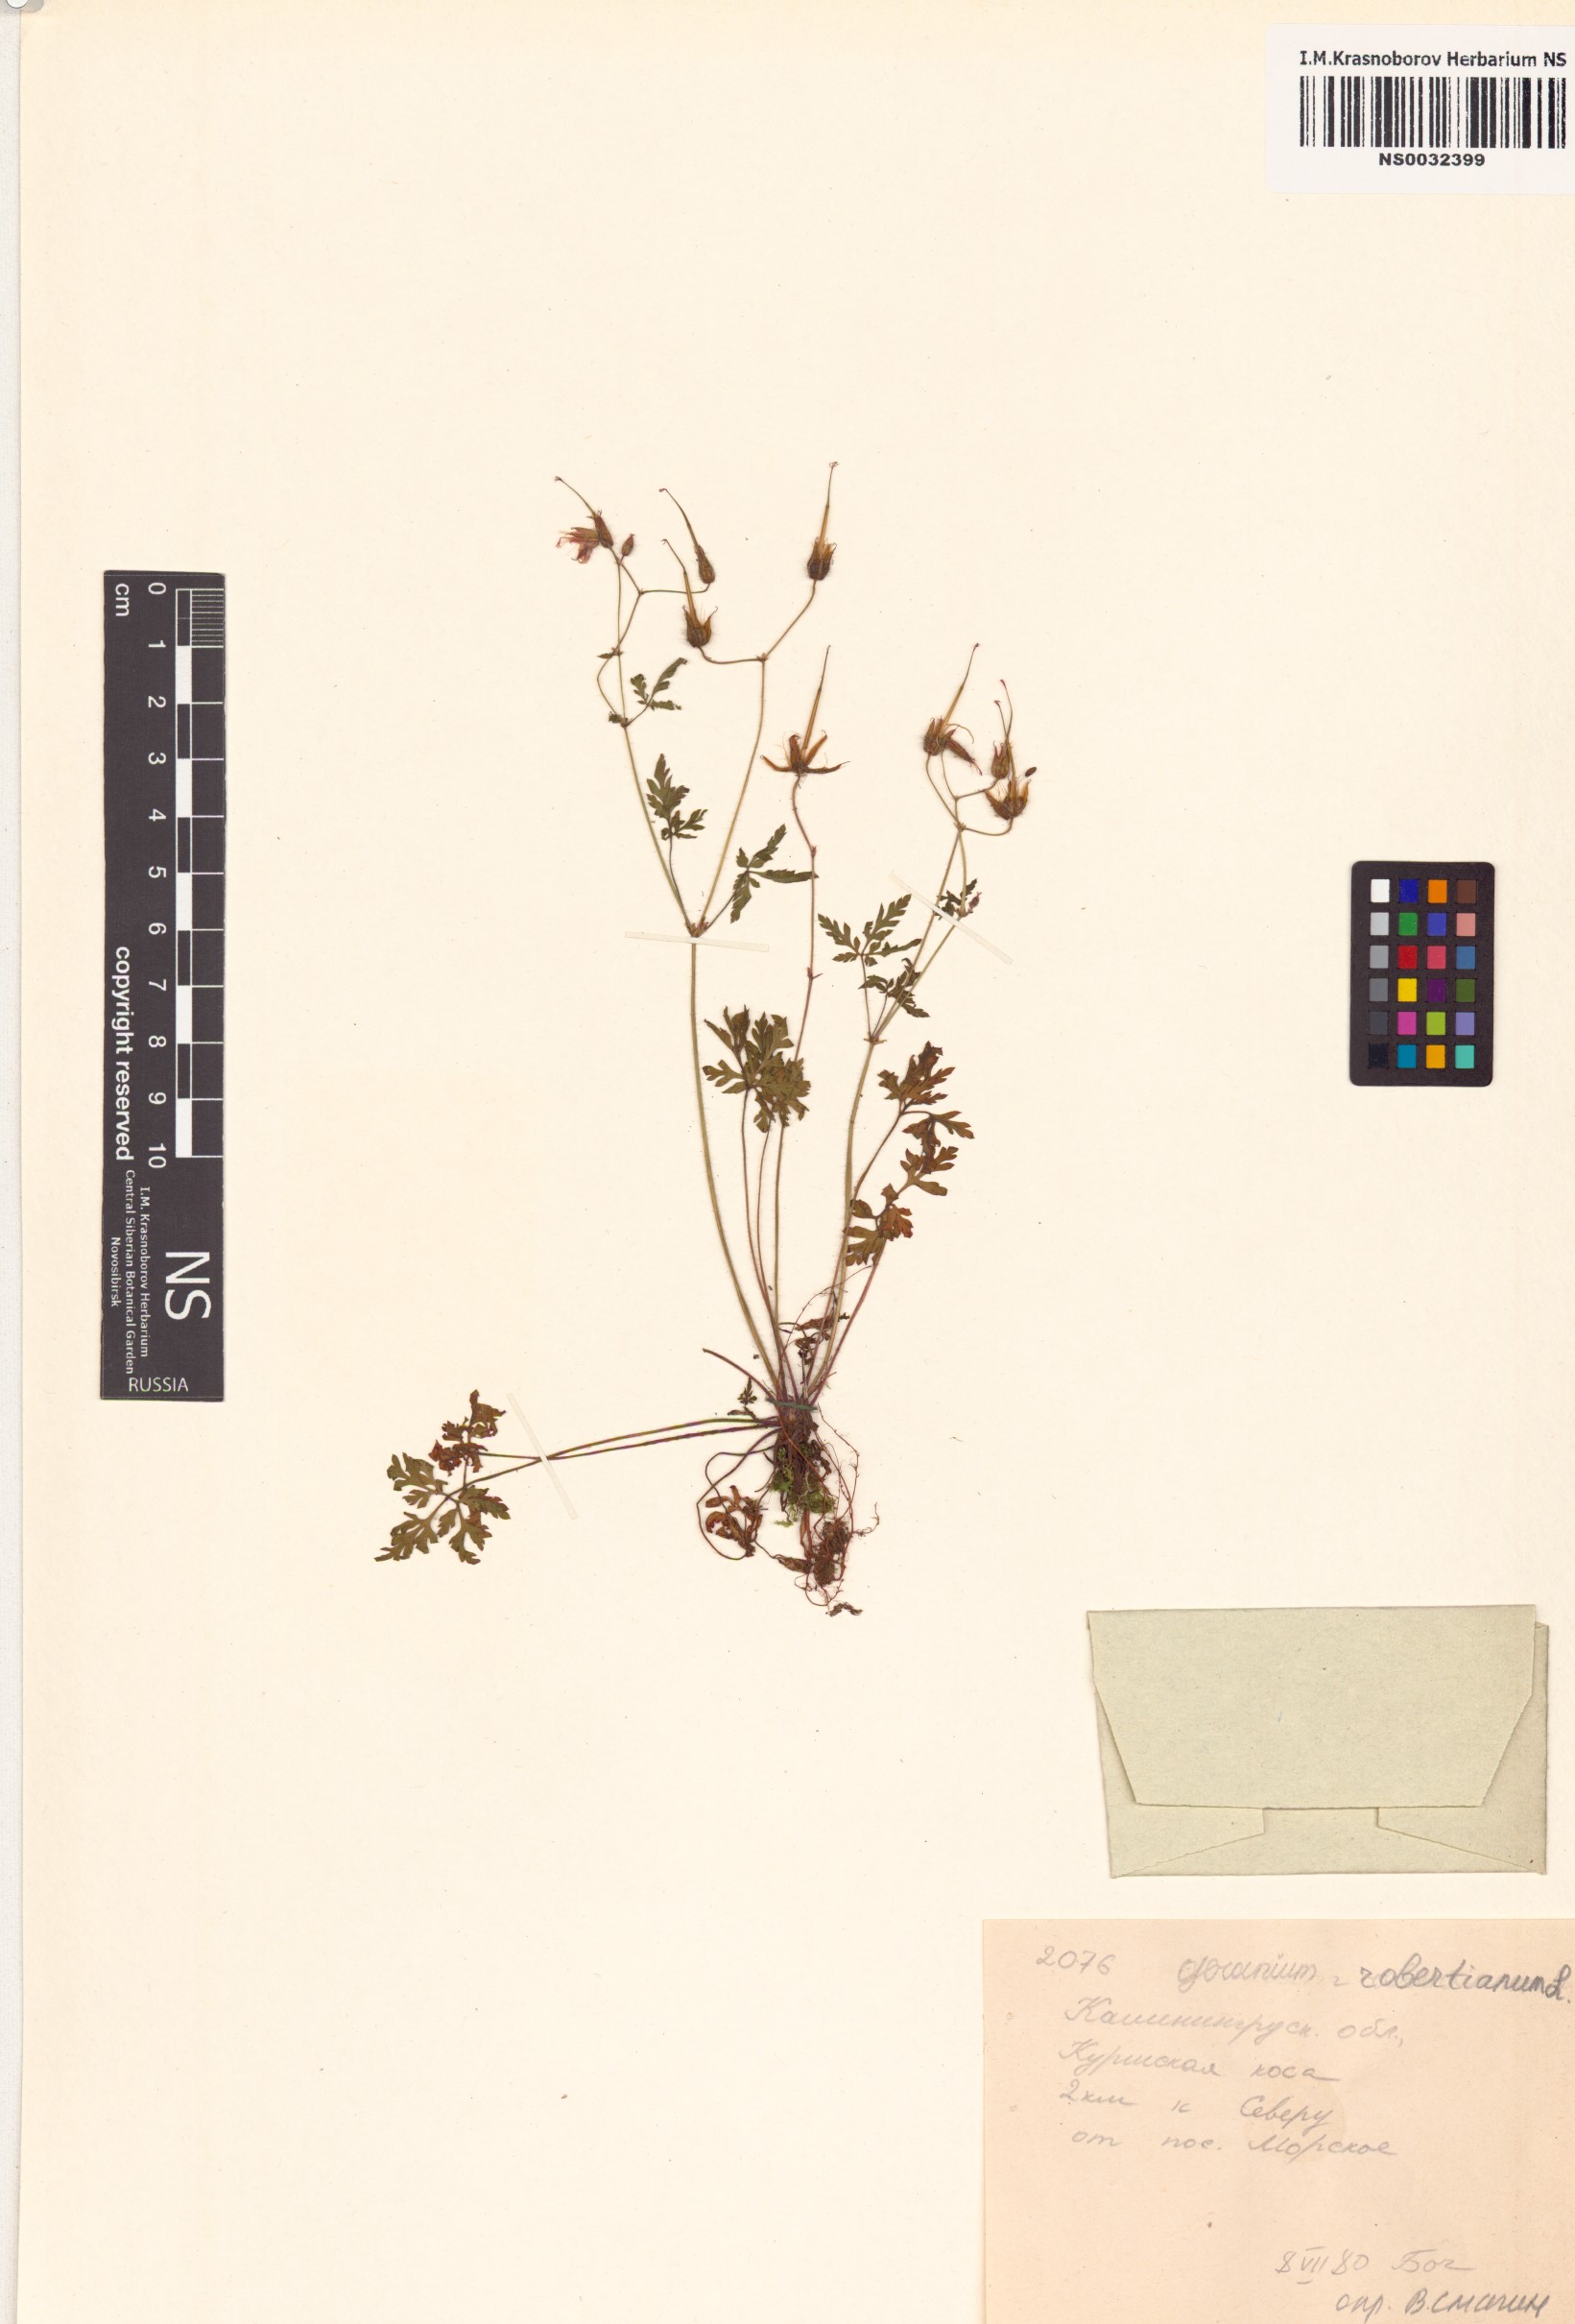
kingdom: Plantae
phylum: Tracheophyta
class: Magnoliopsida
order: Geraniales
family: Geraniaceae
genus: Geranium
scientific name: Geranium robertianum
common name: Herb-robert
